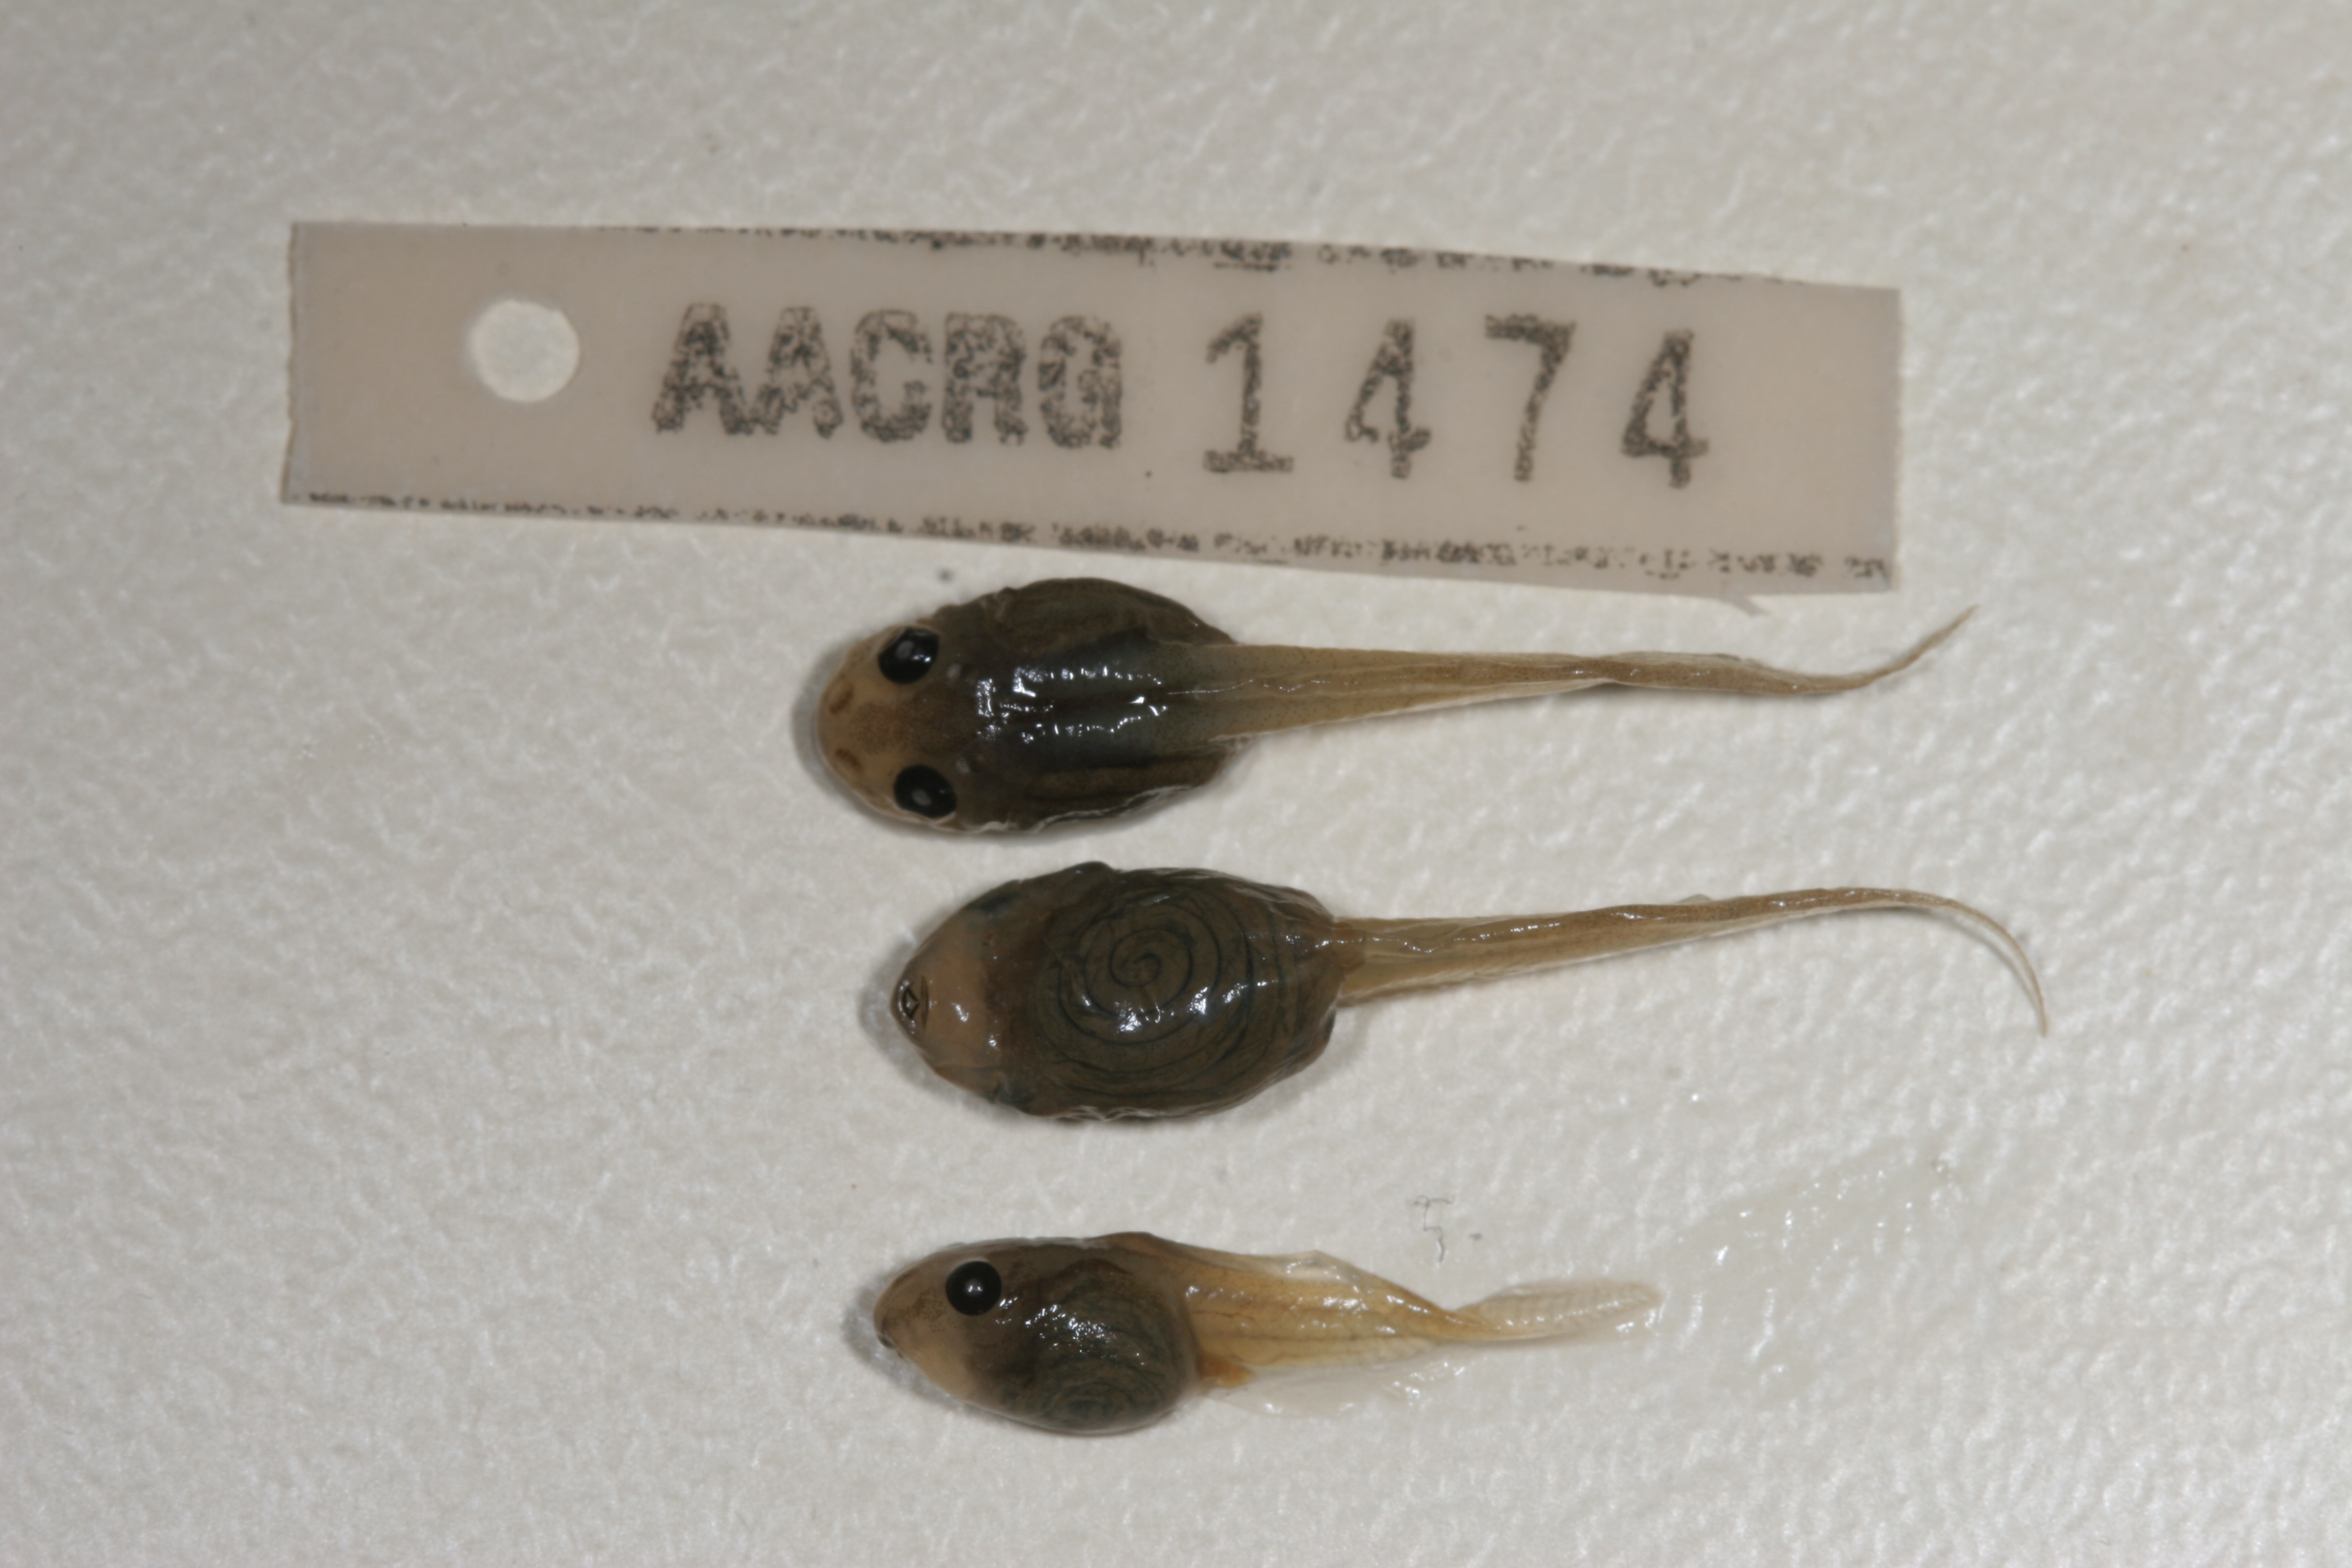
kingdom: Animalia
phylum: Chordata
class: Amphibia
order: Anura
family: Rhacophoridae
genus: Chiromantis
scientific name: Chiromantis xerampelina
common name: African gray treefrog
